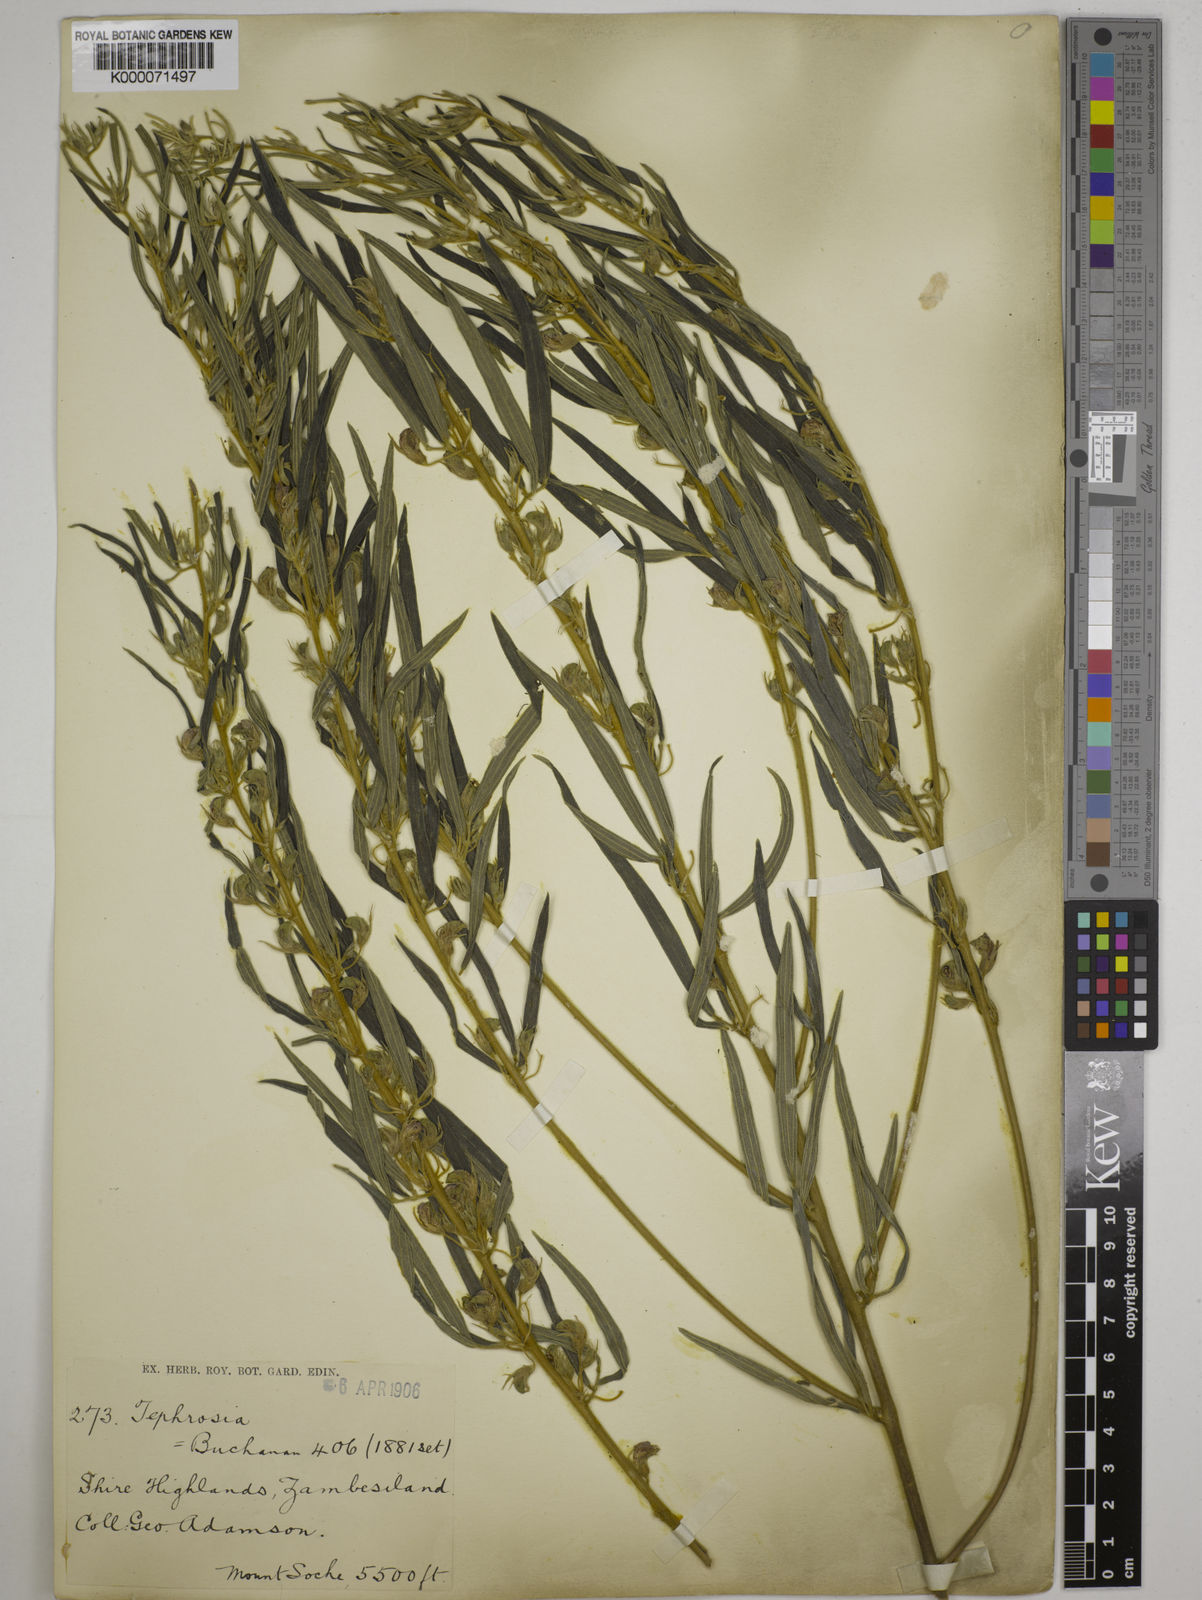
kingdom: Plantae
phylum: Tracheophyta
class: Magnoliopsida
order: Fabales
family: Fabaceae
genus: Dolichos
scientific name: Dolichos trinervatus
